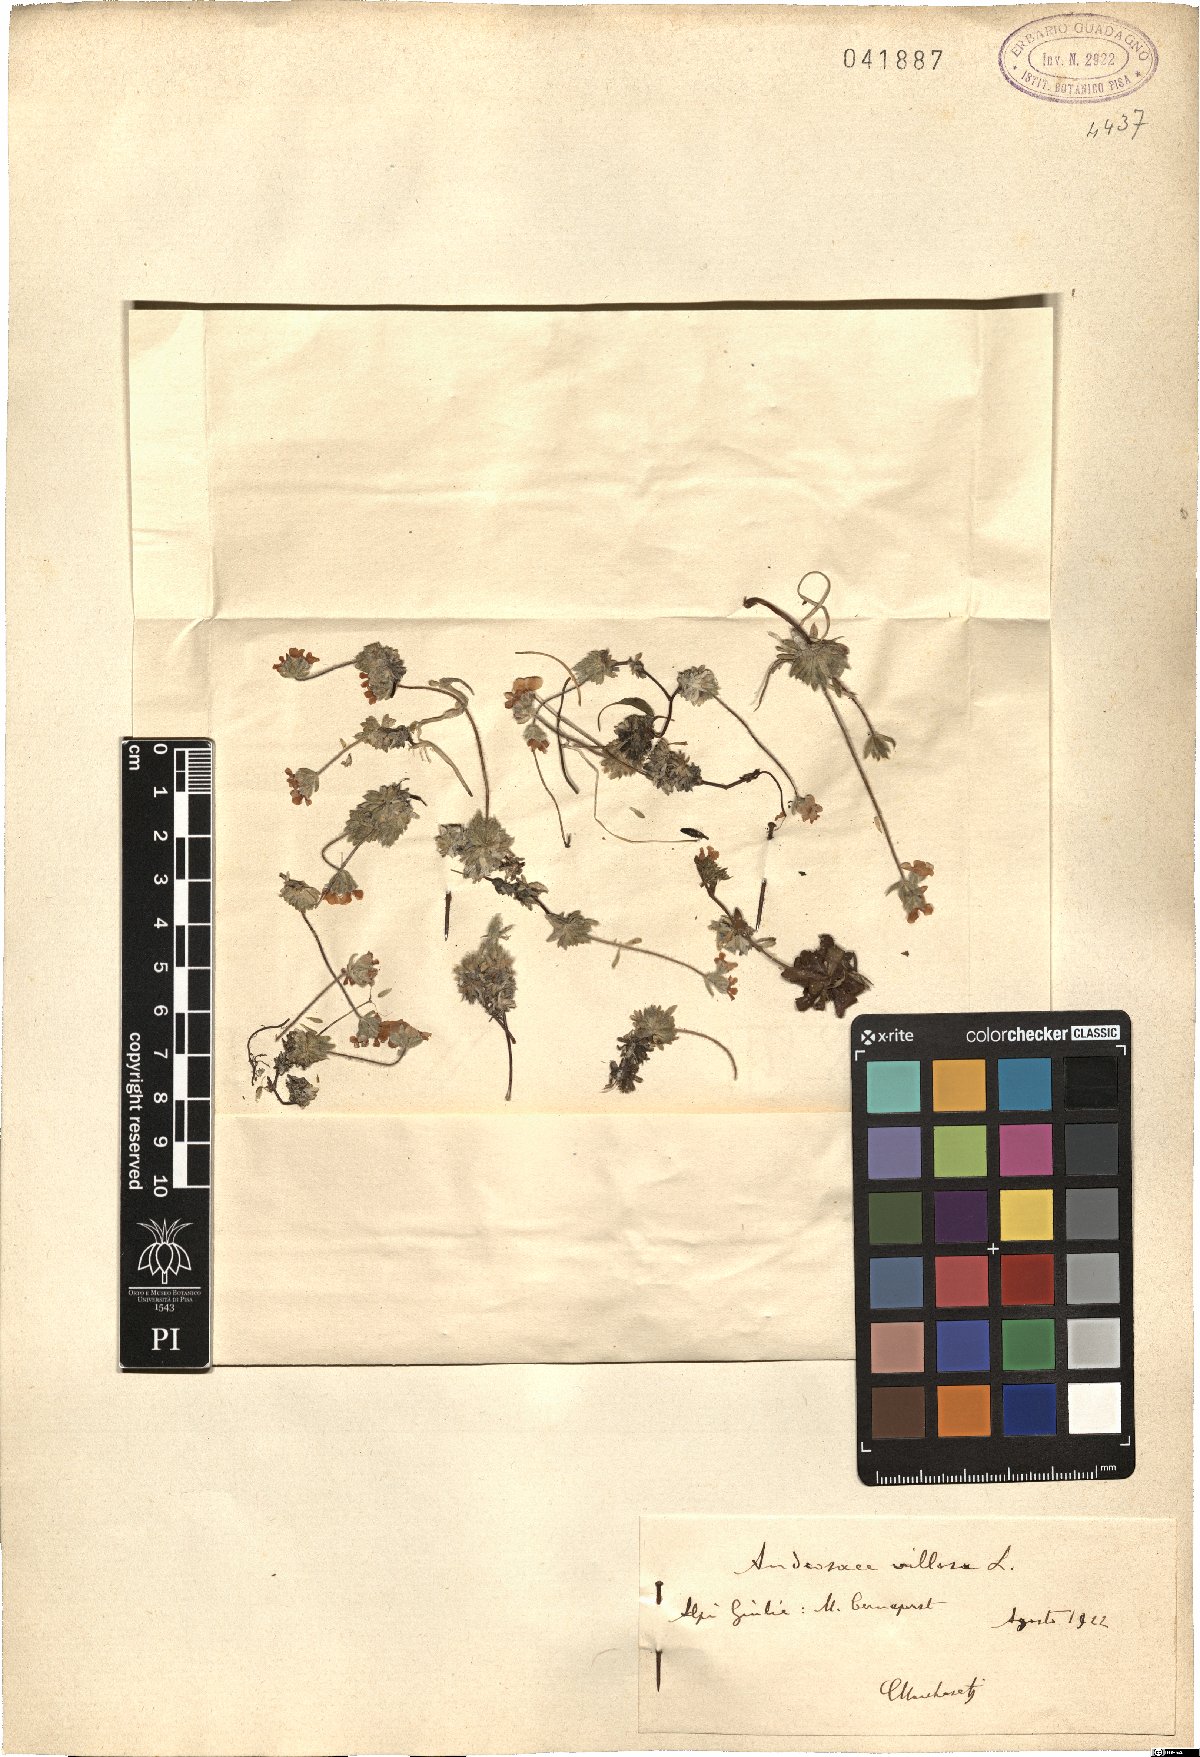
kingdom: Plantae
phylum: Tracheophyta
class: Magnoliopsida
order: Ericales
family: Primulaceae
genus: Androsace
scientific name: Androsace villosa
